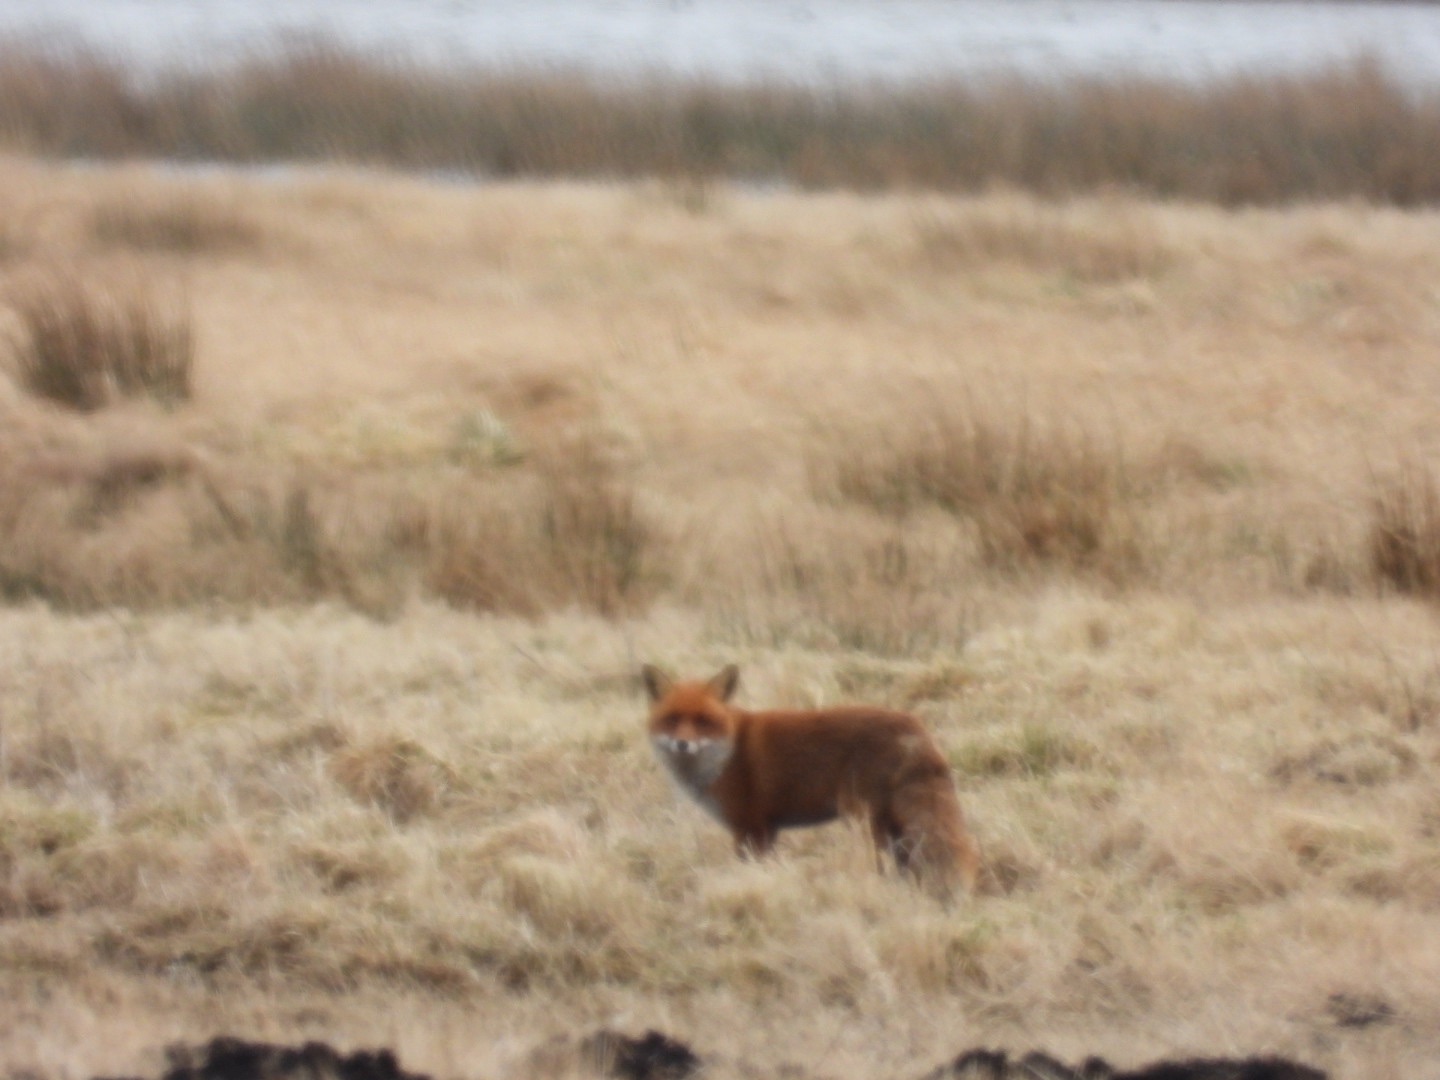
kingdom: Animalia
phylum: Chordata
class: Mammalia
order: Carnivora
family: Canidae
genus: Vulpes
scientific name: Vulpes vulpes
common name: Ræv
